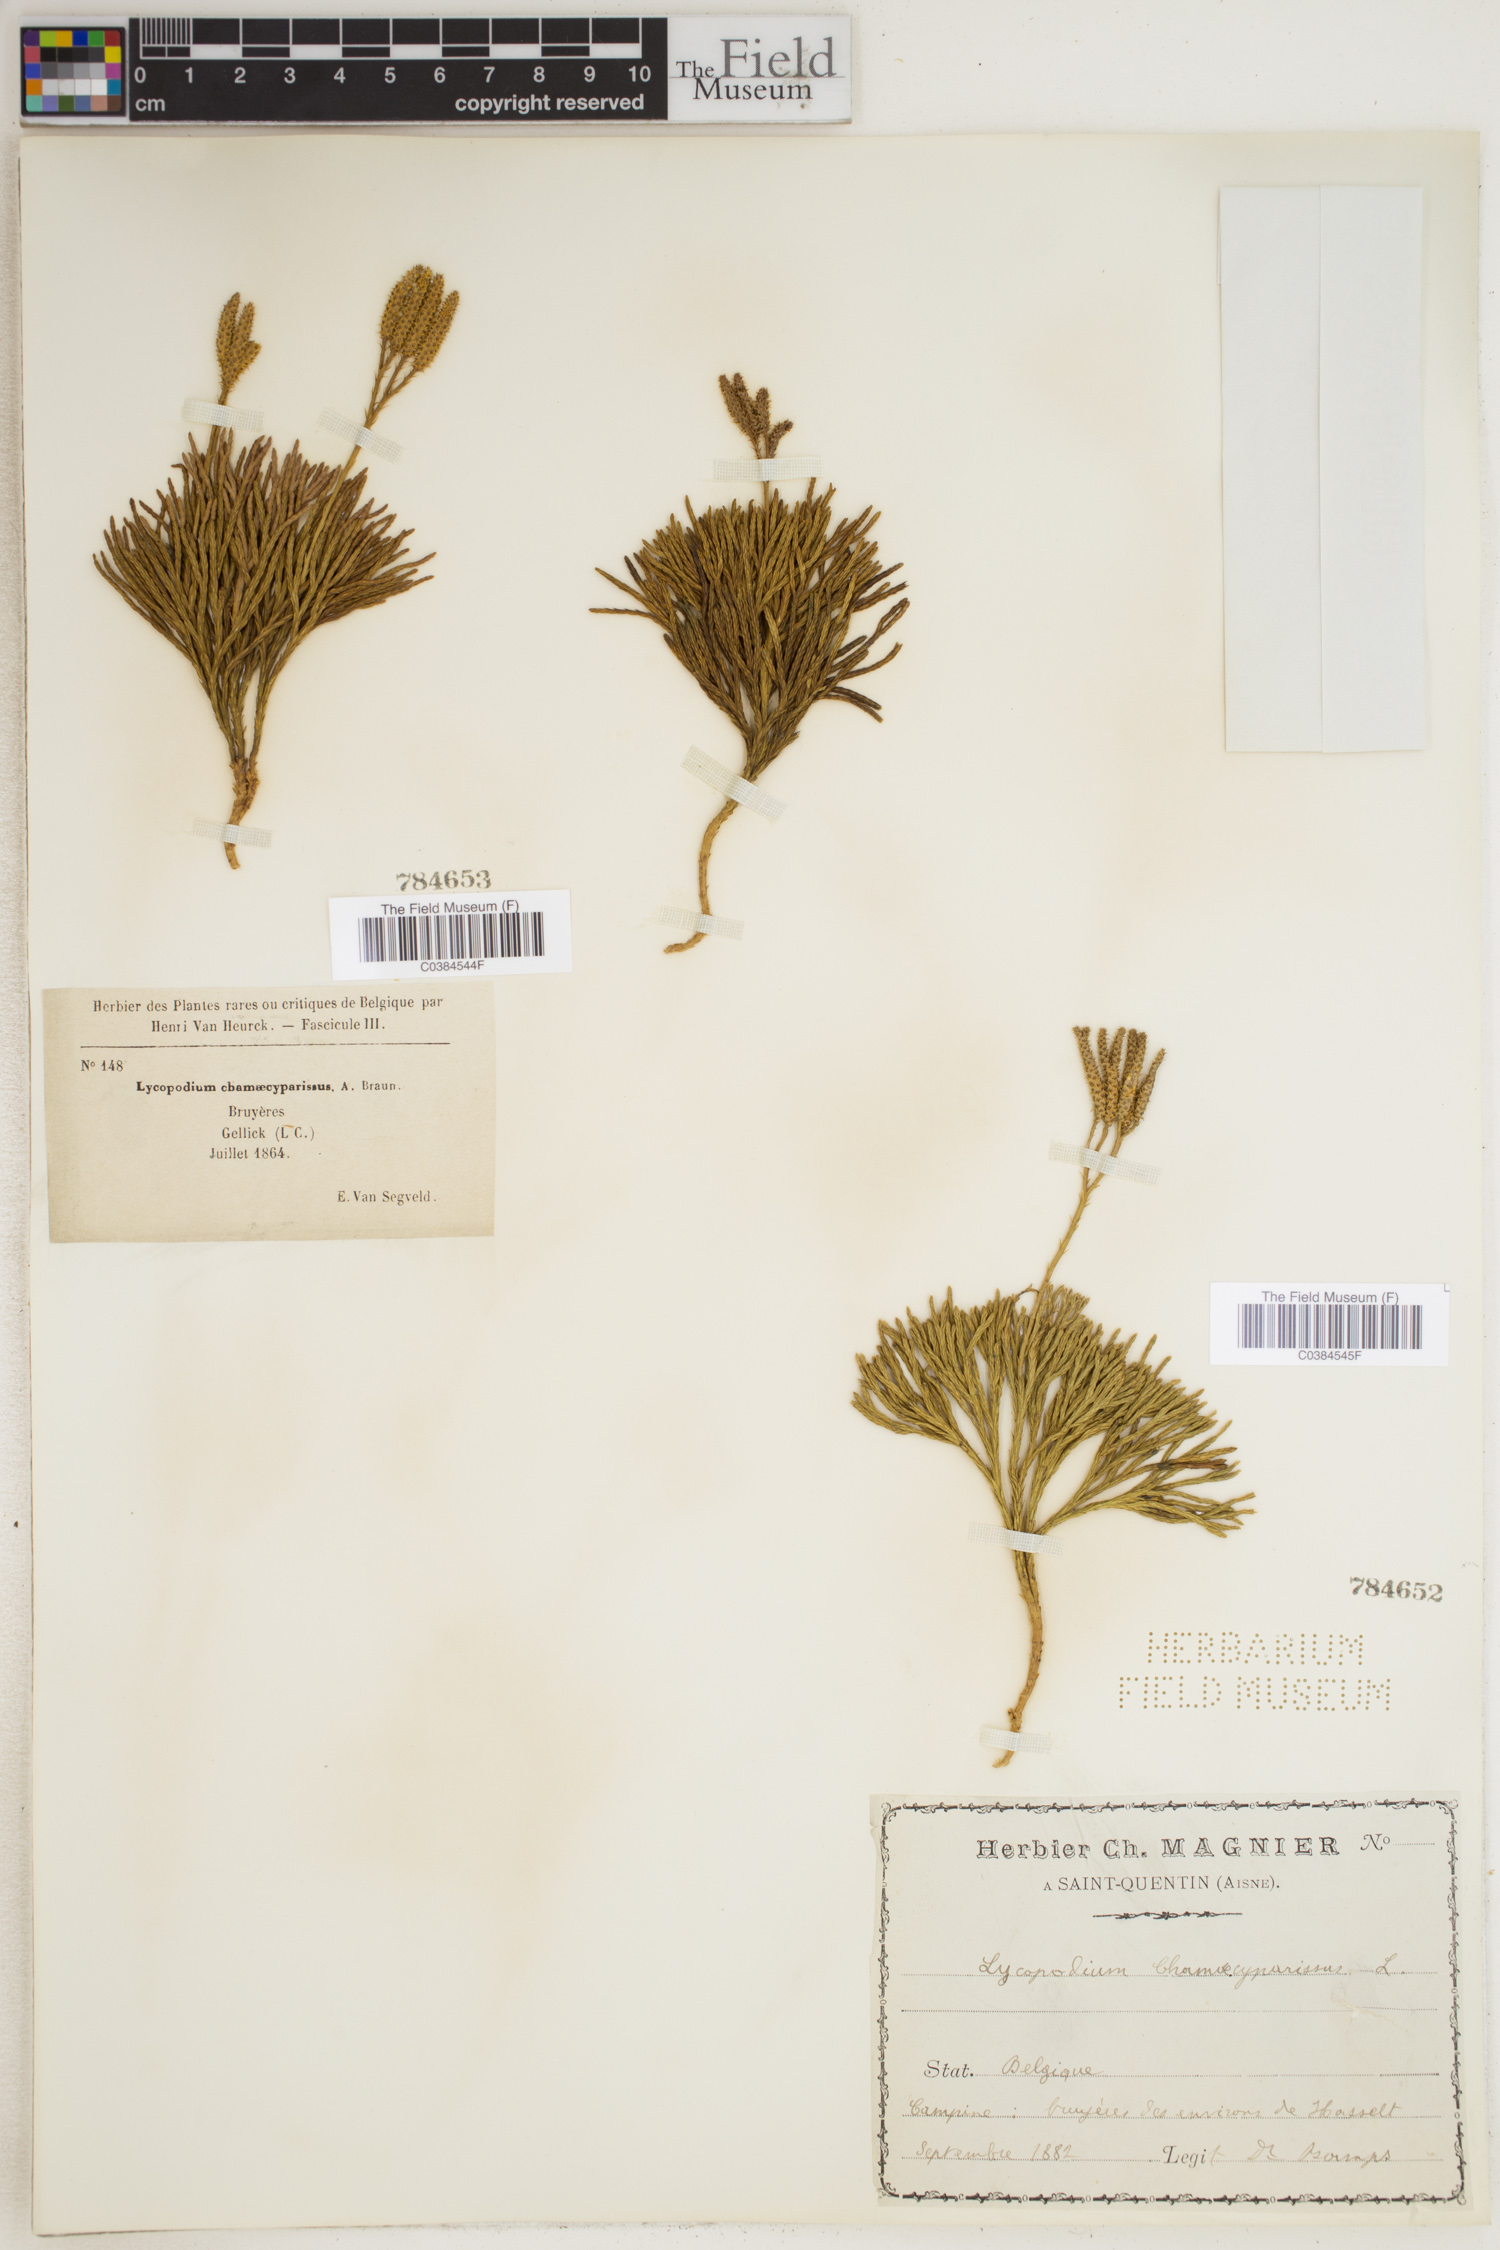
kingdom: Plantae
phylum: Tracheophyta
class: Lycopodiopsida
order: Lycopodiales
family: Lycopodiaceae
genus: Diphasiastrum
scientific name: Diphasiastrum tristachyum
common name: Blue ground-cedar
